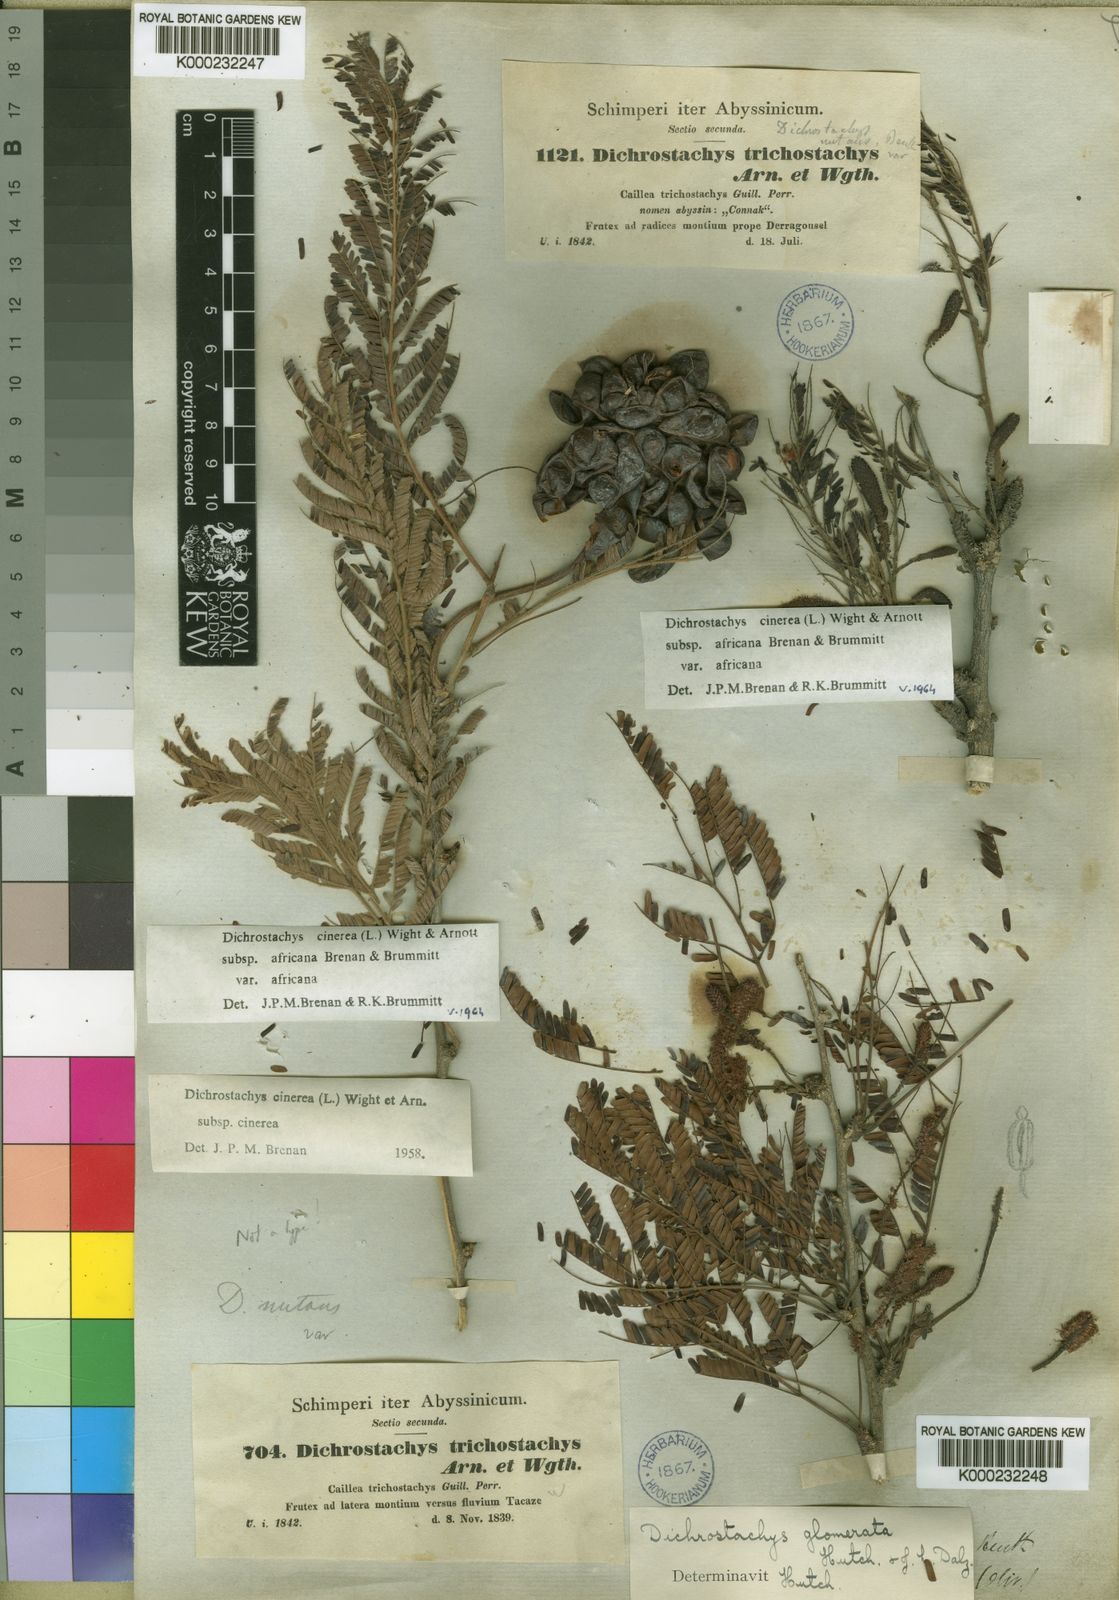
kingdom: Plantae
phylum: Tracheophyta
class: Magnoliopsida
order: Fabales
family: Fabaceae
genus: Dichrostachys
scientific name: Dichrostachys cinerea
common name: Sicklebush
